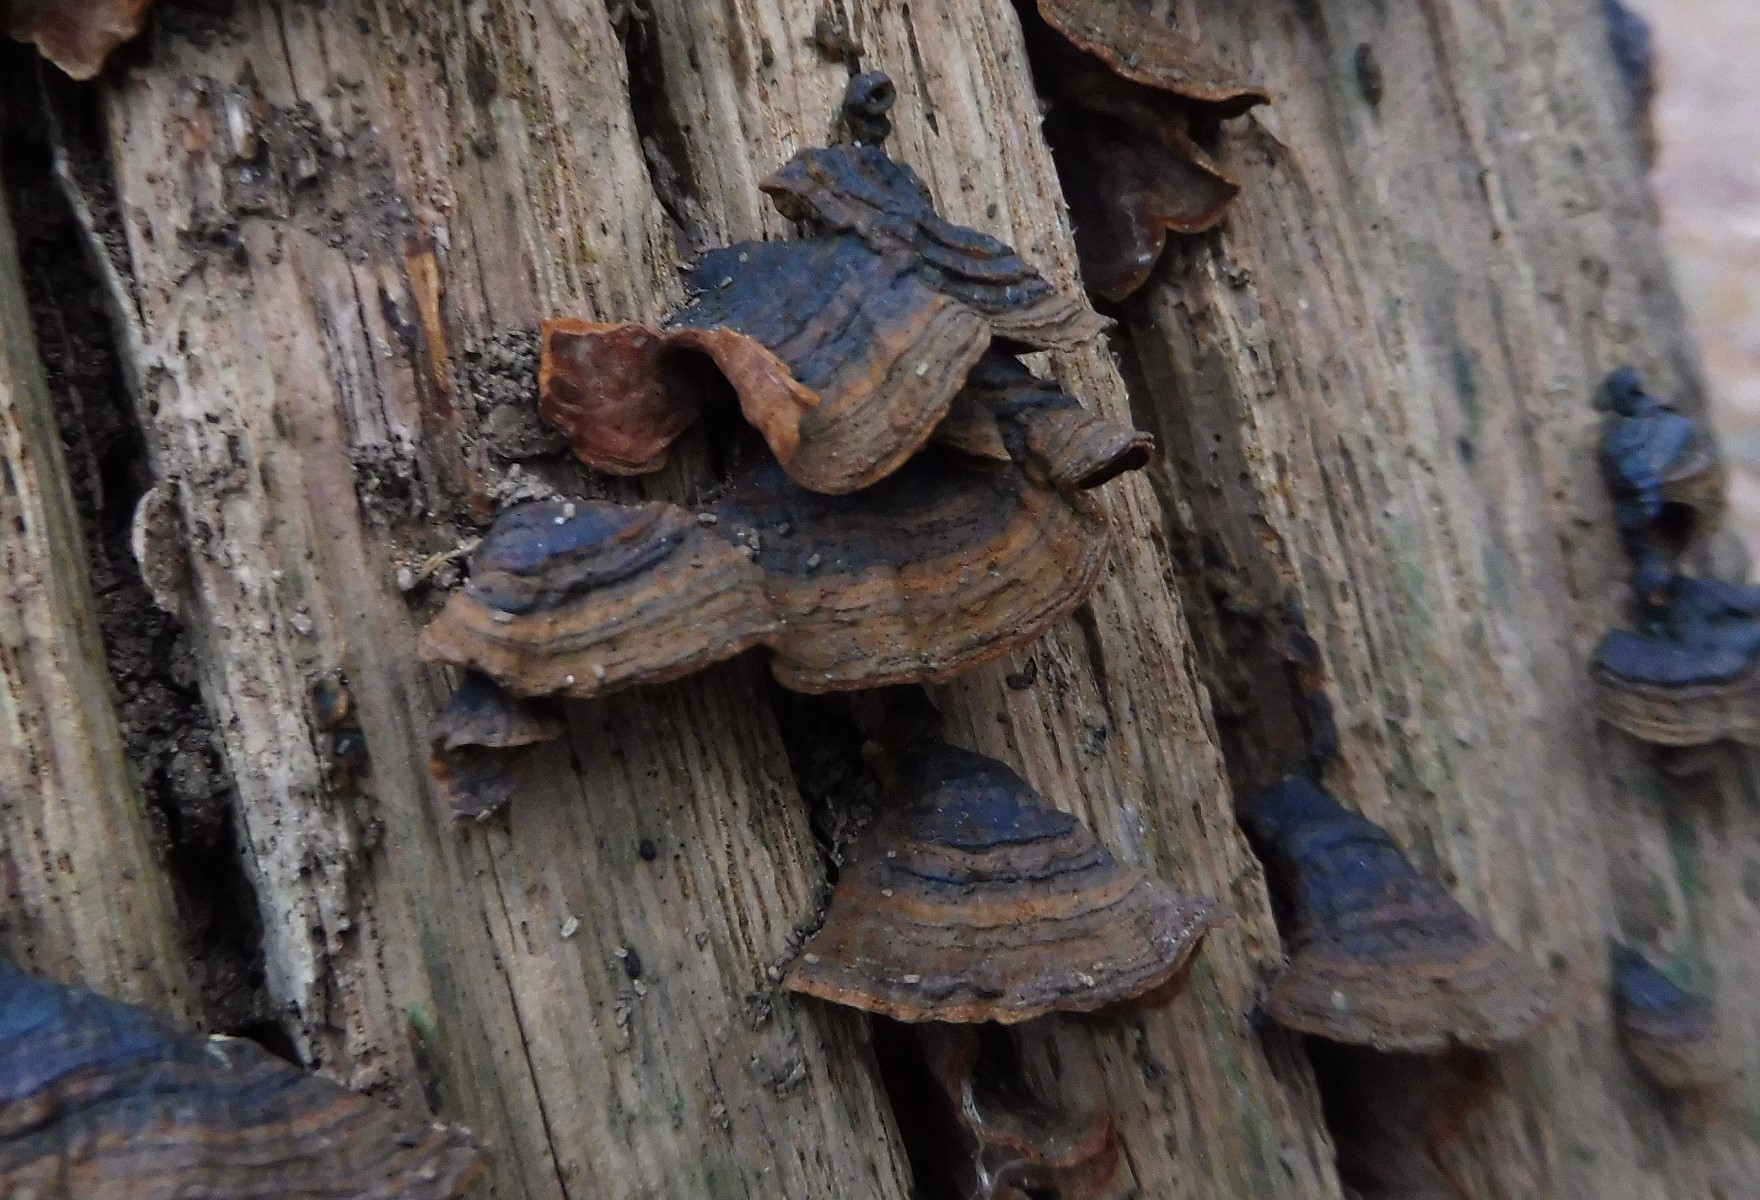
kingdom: Fungi
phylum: Basidiomycota
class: Agaricomycetes
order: Hymenochaetales
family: Hymenochaetaceae
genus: Hymenochaete
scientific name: Hymenochaete rubiginosa
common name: stiv ruslædersvamp
